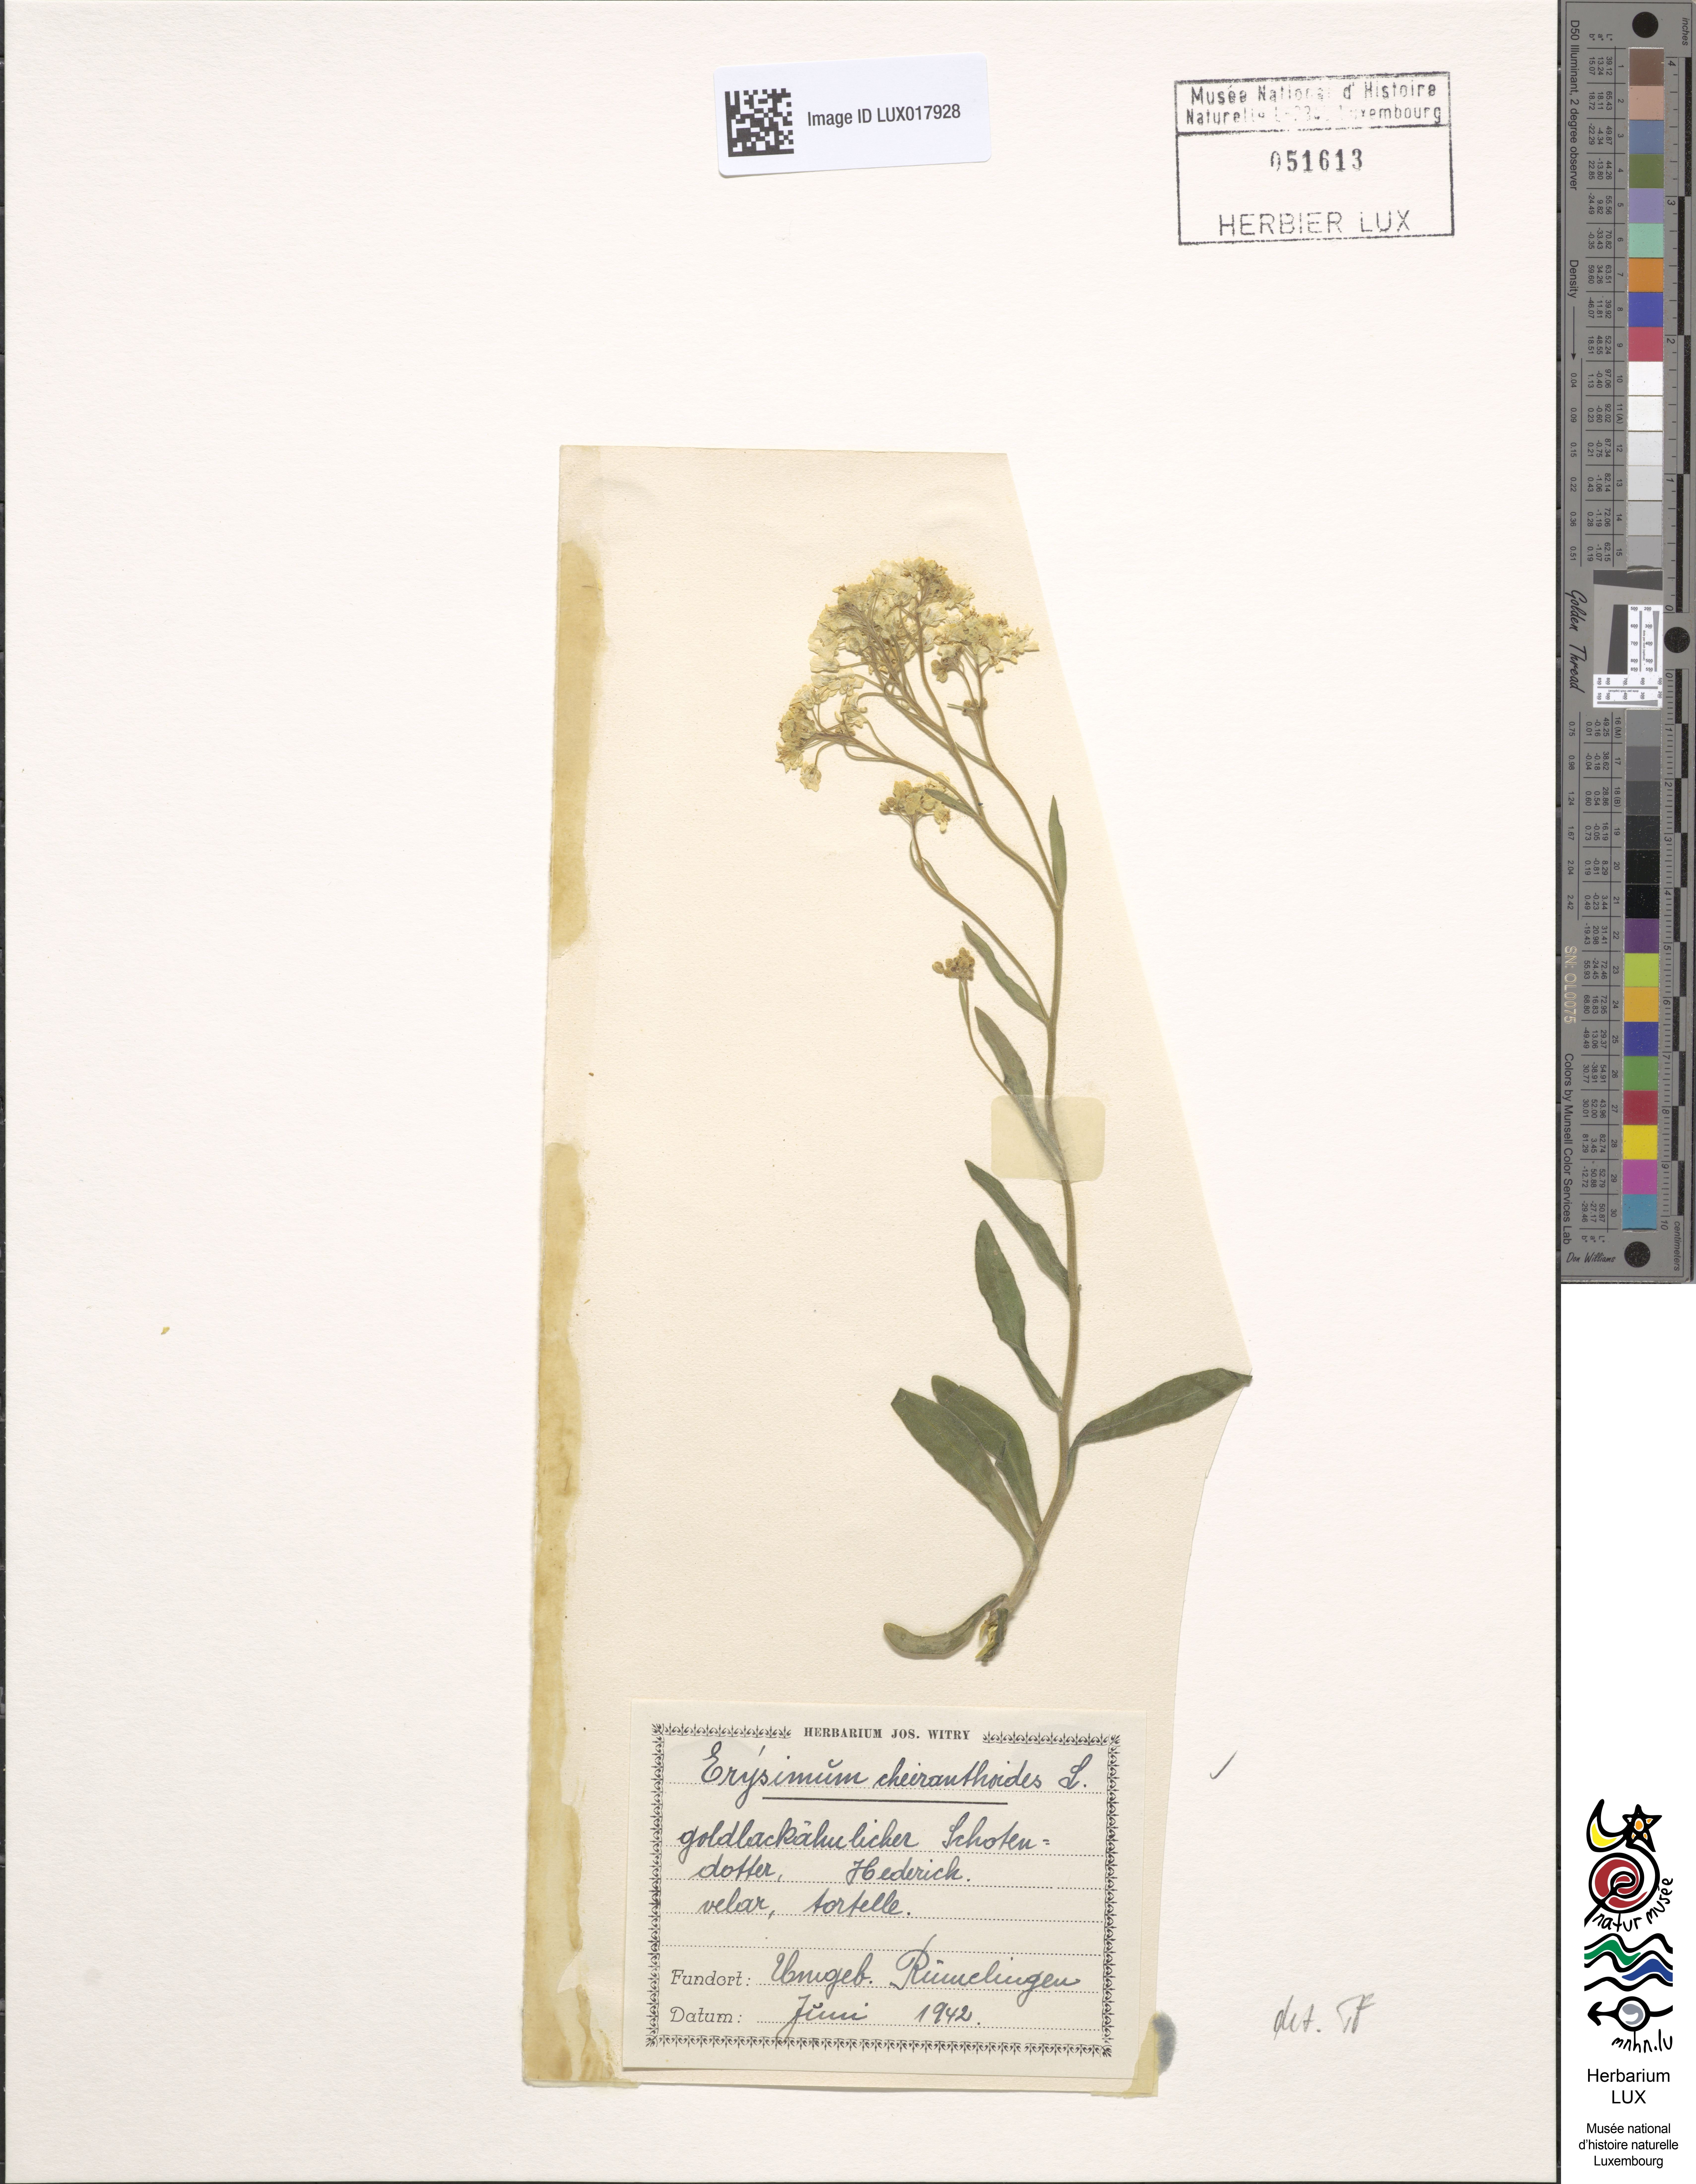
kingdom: Plantae
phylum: Tracheophyta
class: Magnoliopsida
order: Brassicales
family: Brassicaceae
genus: Erysimum
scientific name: Erysimum cheiranthoides
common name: Treacle mustard
